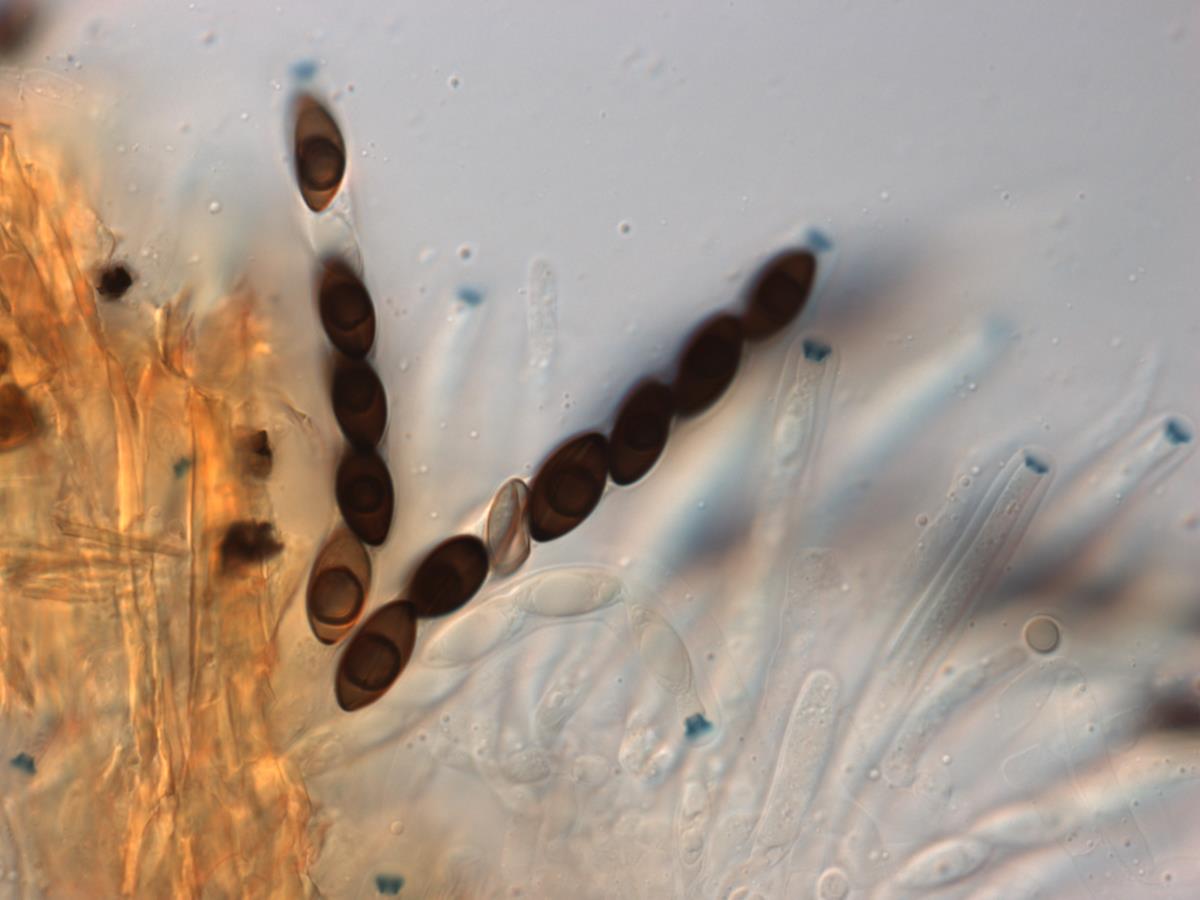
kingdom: Fungi
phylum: Ascomycota
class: Sordariomycetes
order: Xylariales
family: Xylariaceae
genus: Rosellinia
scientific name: Rosellinia
